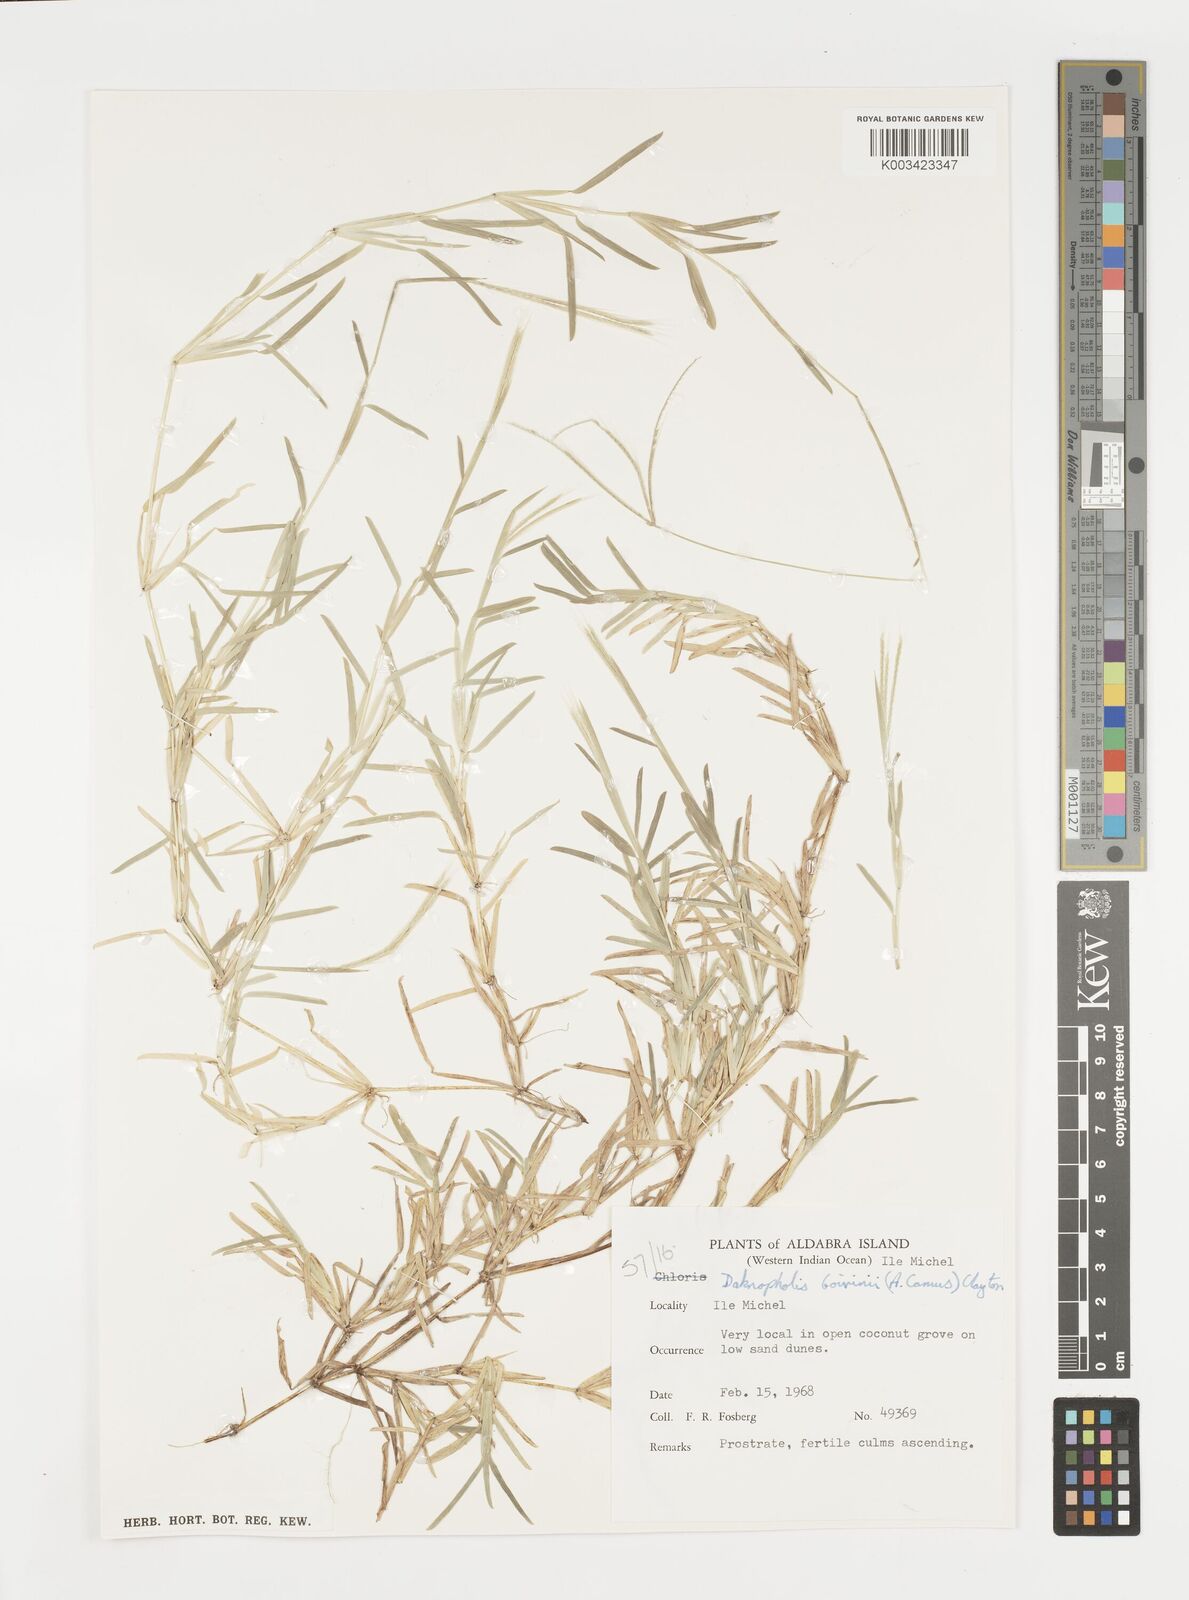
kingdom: Plantae
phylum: Tracheophyta
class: Liliopsida
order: Poales
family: Poaceae
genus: Daknopholis
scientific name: Daknopholis boivinii
